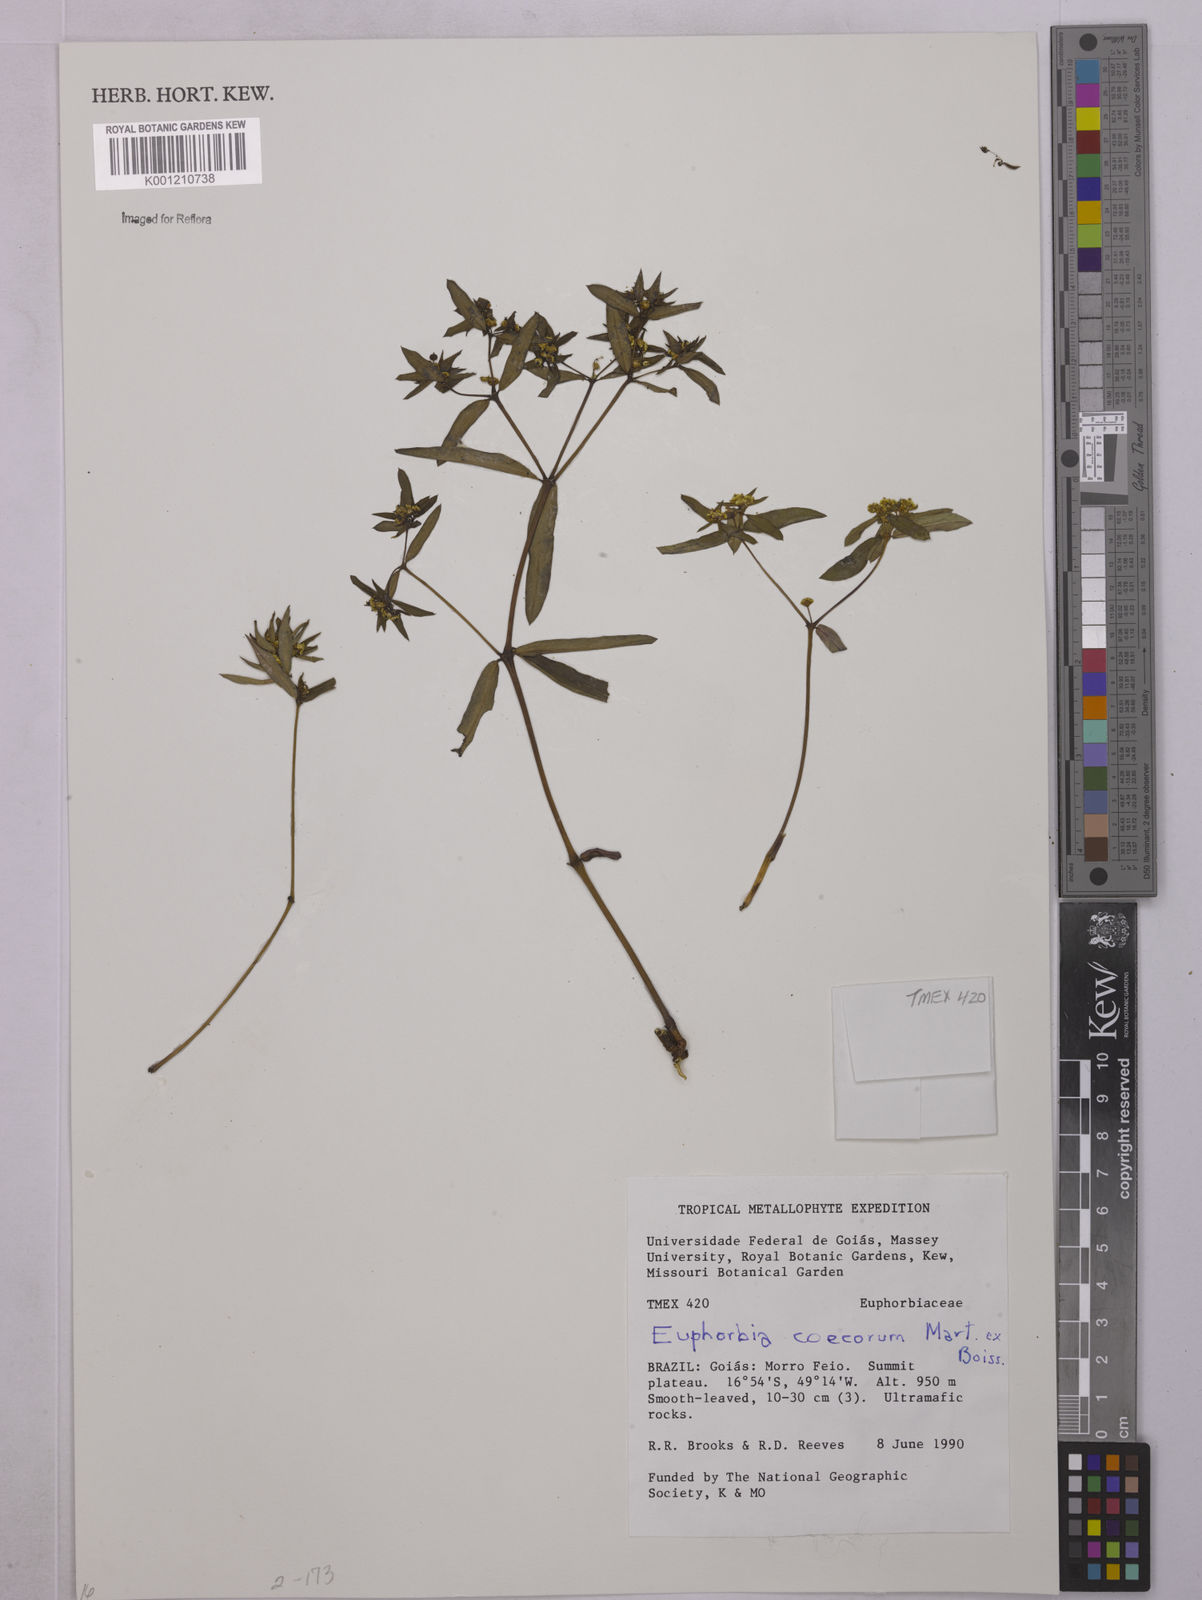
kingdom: Plantae
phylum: Tracheophyta
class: Magnoliopsida
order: Malpighiales
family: Euphorbiaceae
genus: Euphorbia
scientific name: Euphorbia potentilloides
